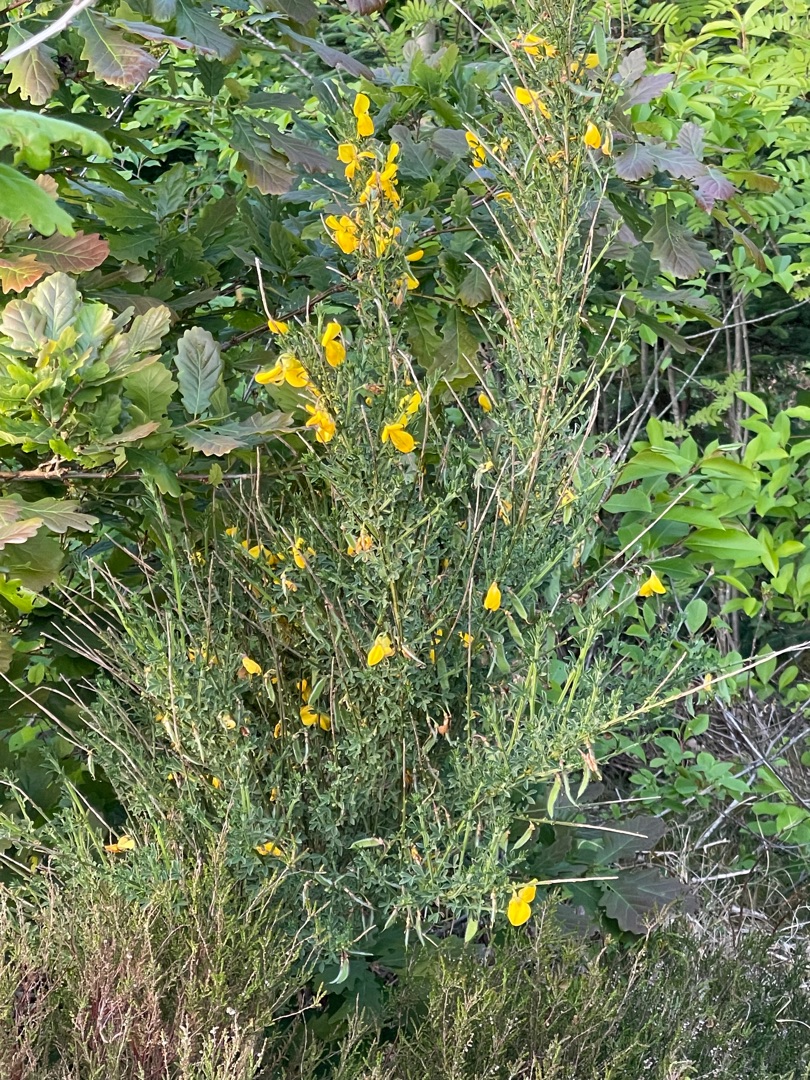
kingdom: Plantae
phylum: Tracheophyta
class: Magnoliopsida
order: Fabales
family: Fabaceae
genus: Cytisus
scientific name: Cytisus scoparius
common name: Almindelig gyvel
